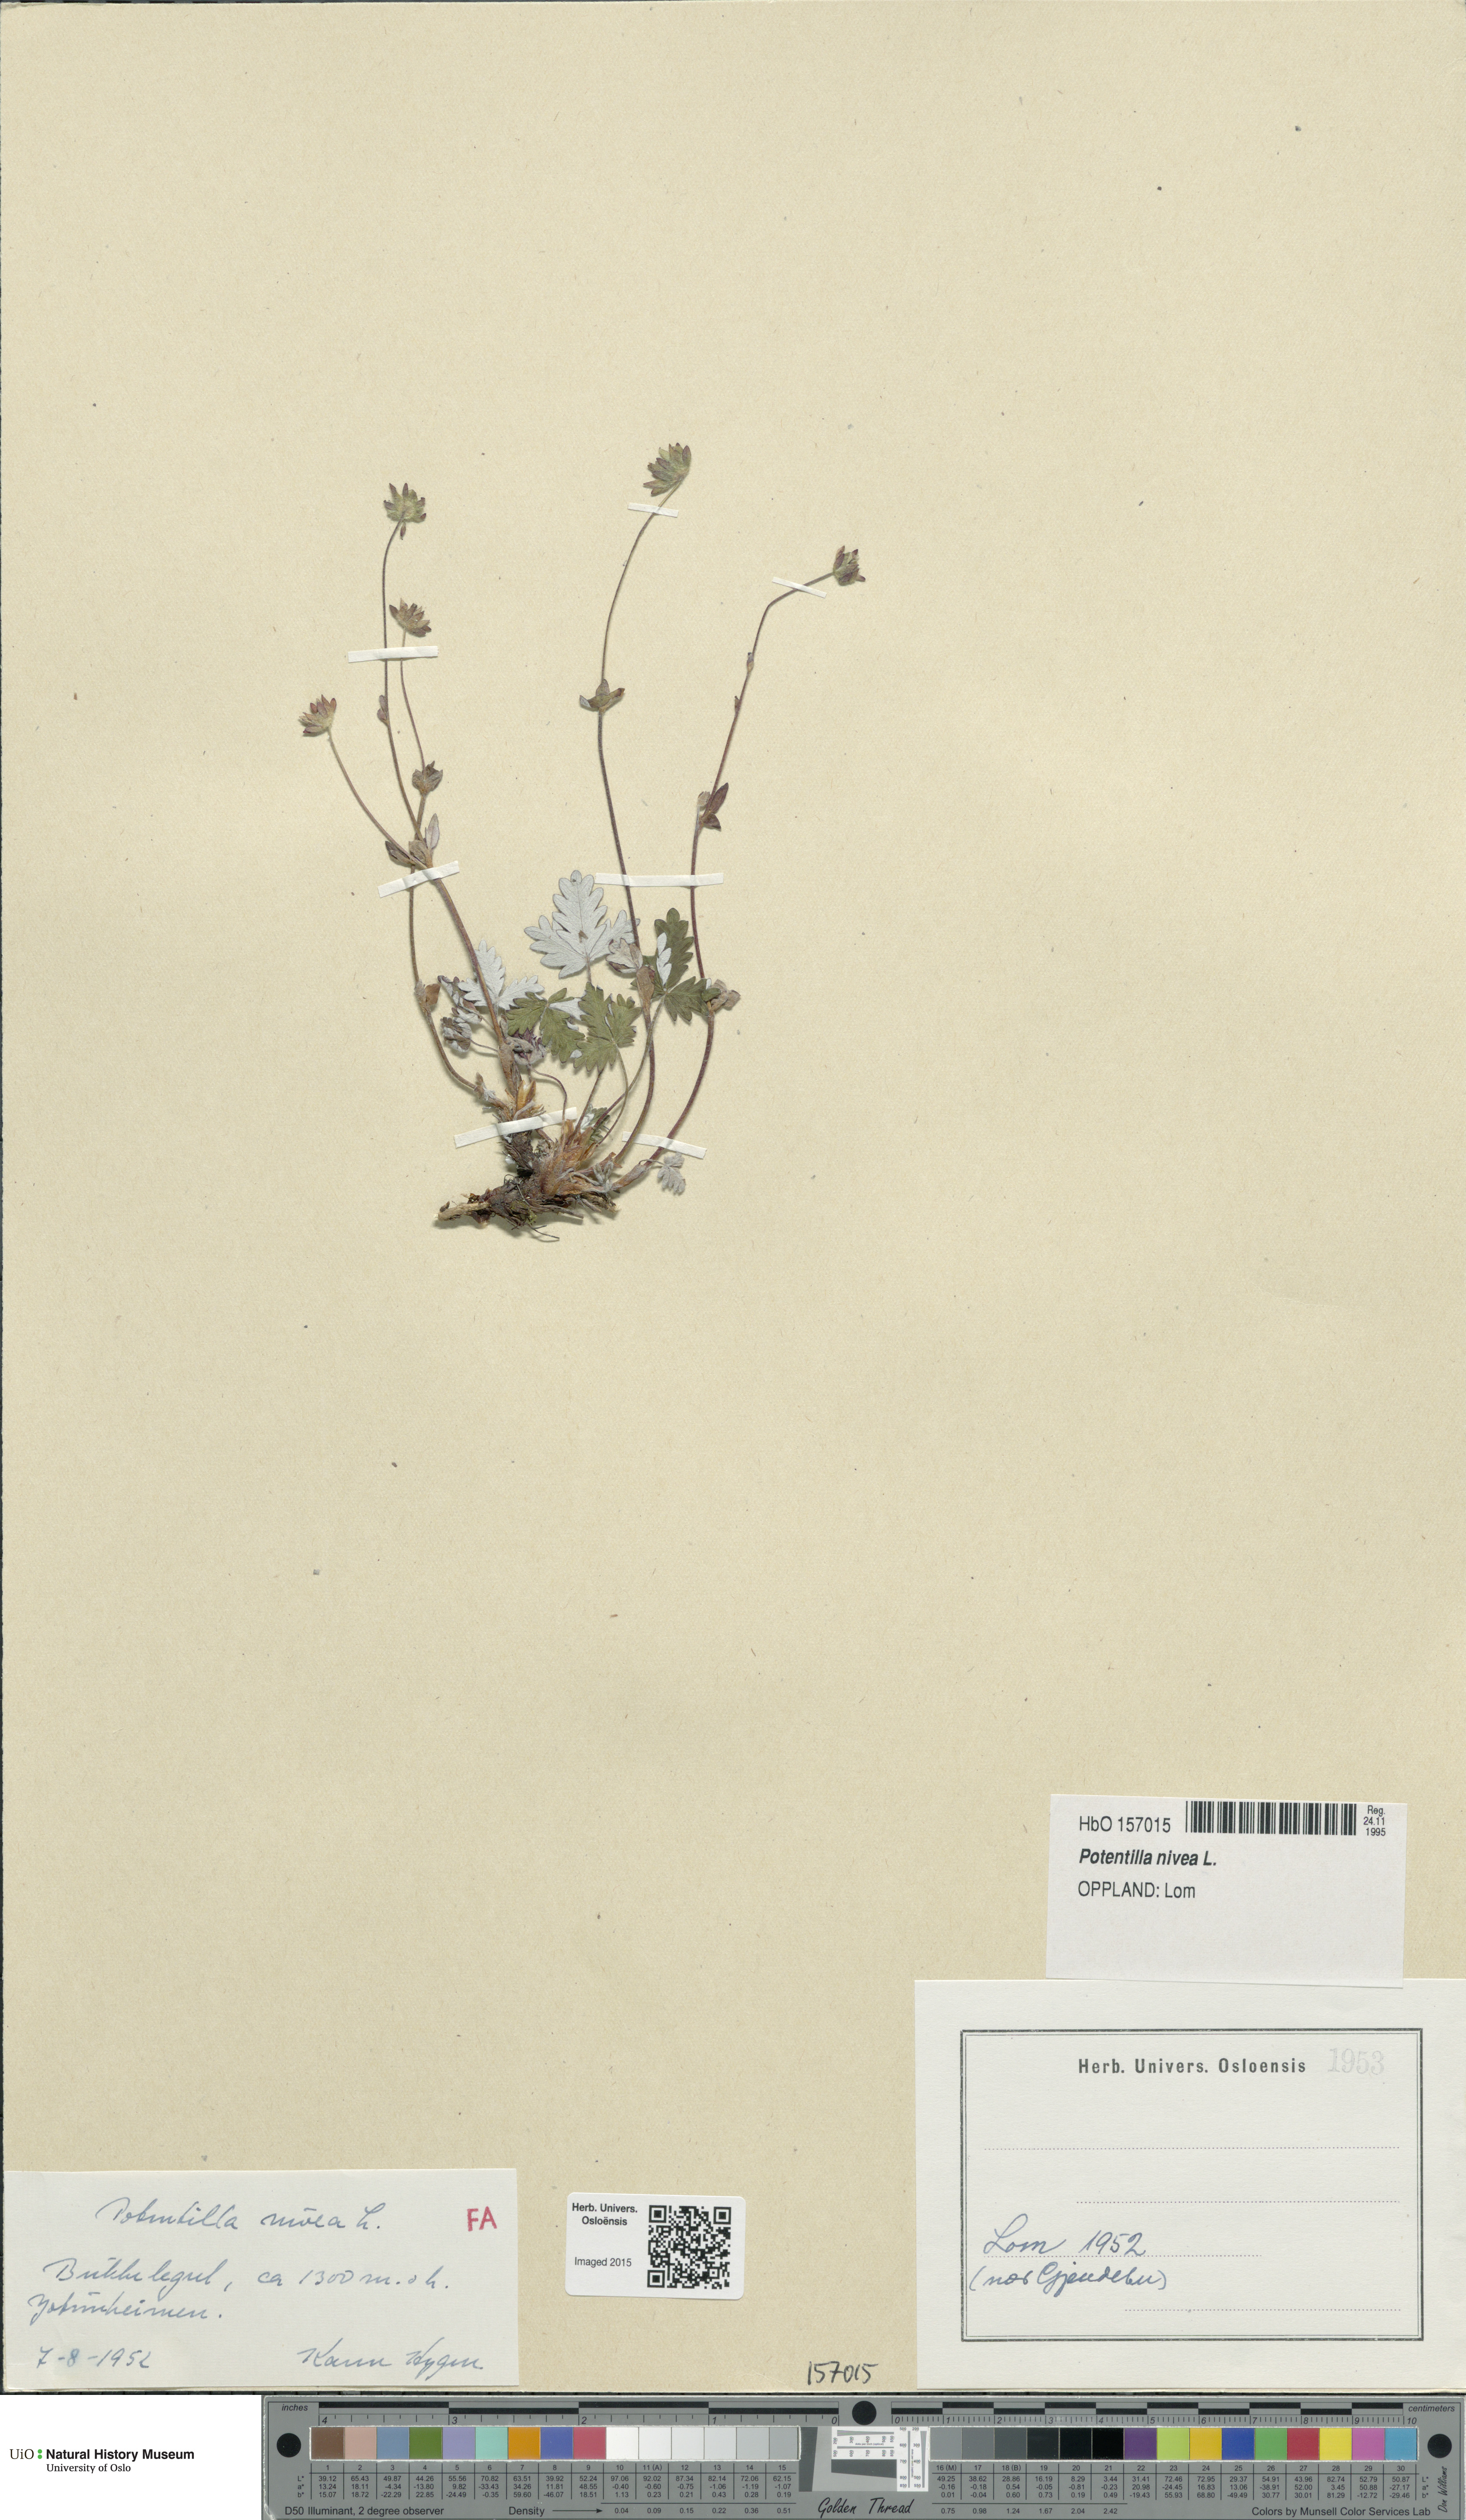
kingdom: Plantae
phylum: Tracheophyta
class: Magnoliopsida
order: Rosales
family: Rosaceae
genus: Potentilla
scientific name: Potentilla arenosa
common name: Bluff cinquefoil
